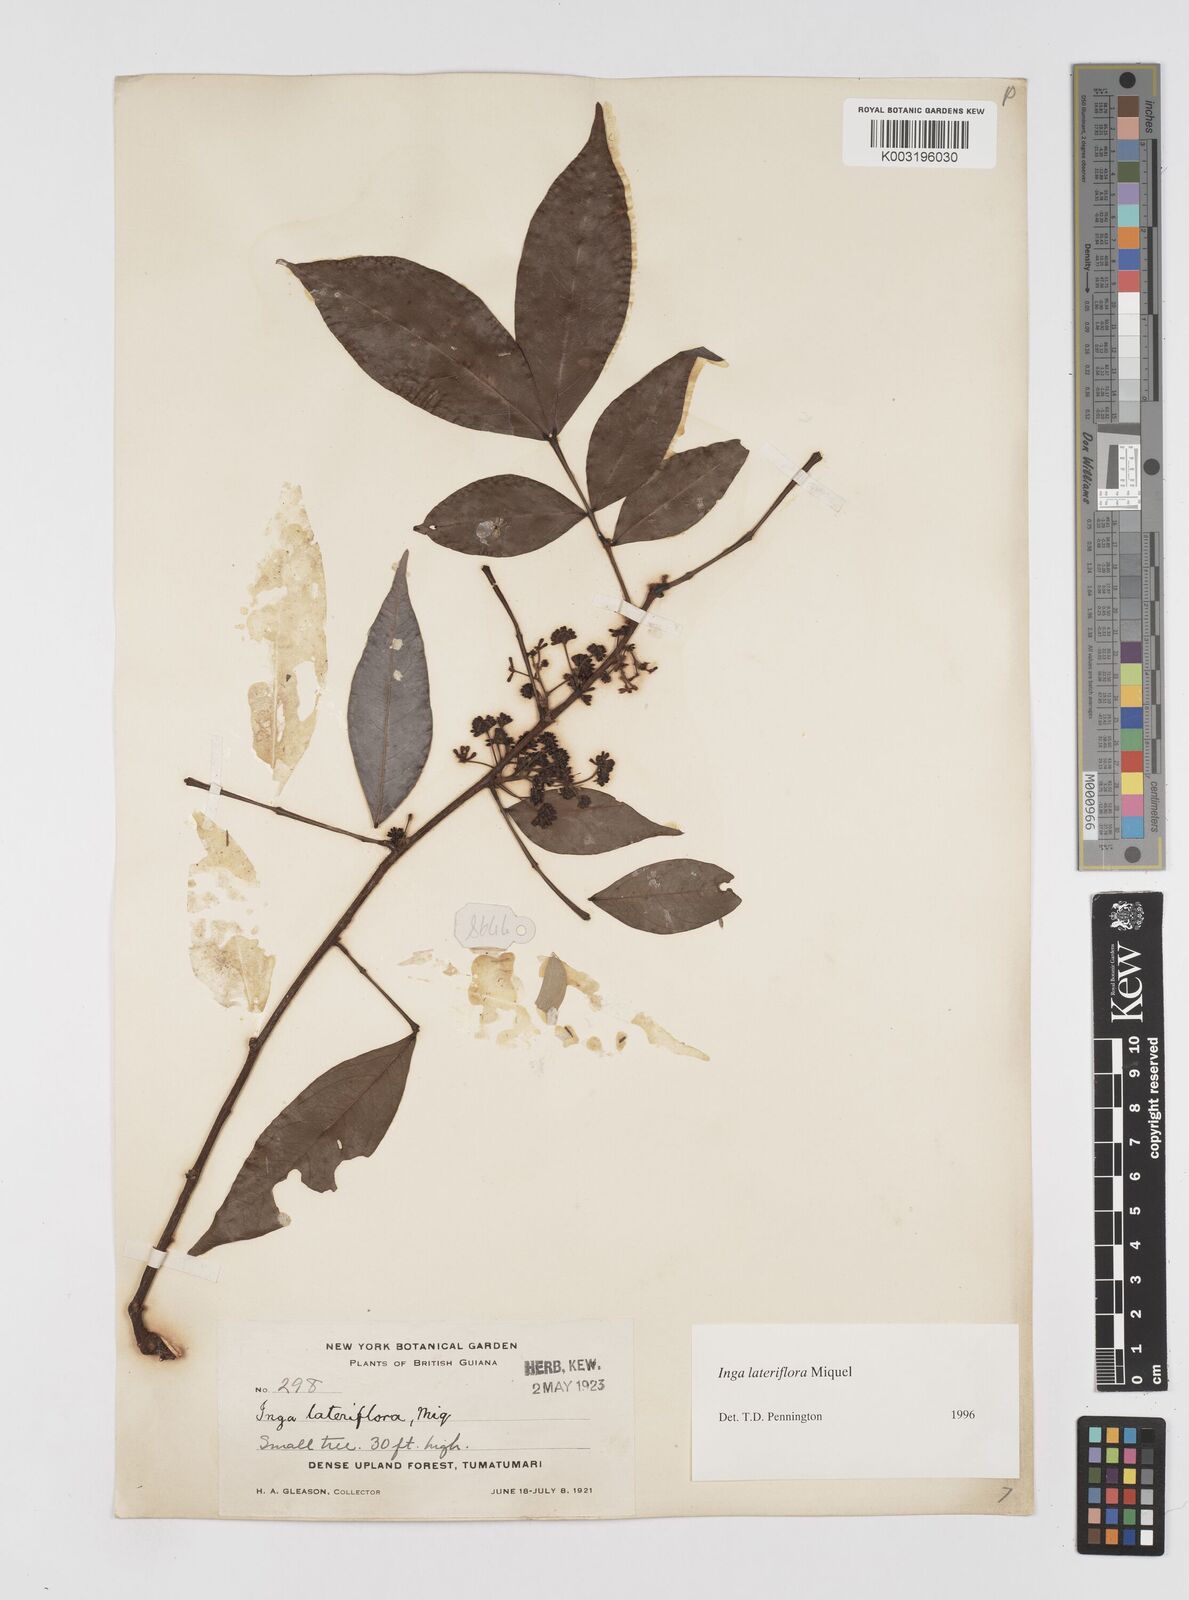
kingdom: Plantae
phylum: Tracheophyta
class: Magnoliopsida
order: Fabales
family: Fabaceae
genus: Inga
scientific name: Inga lateriflora
